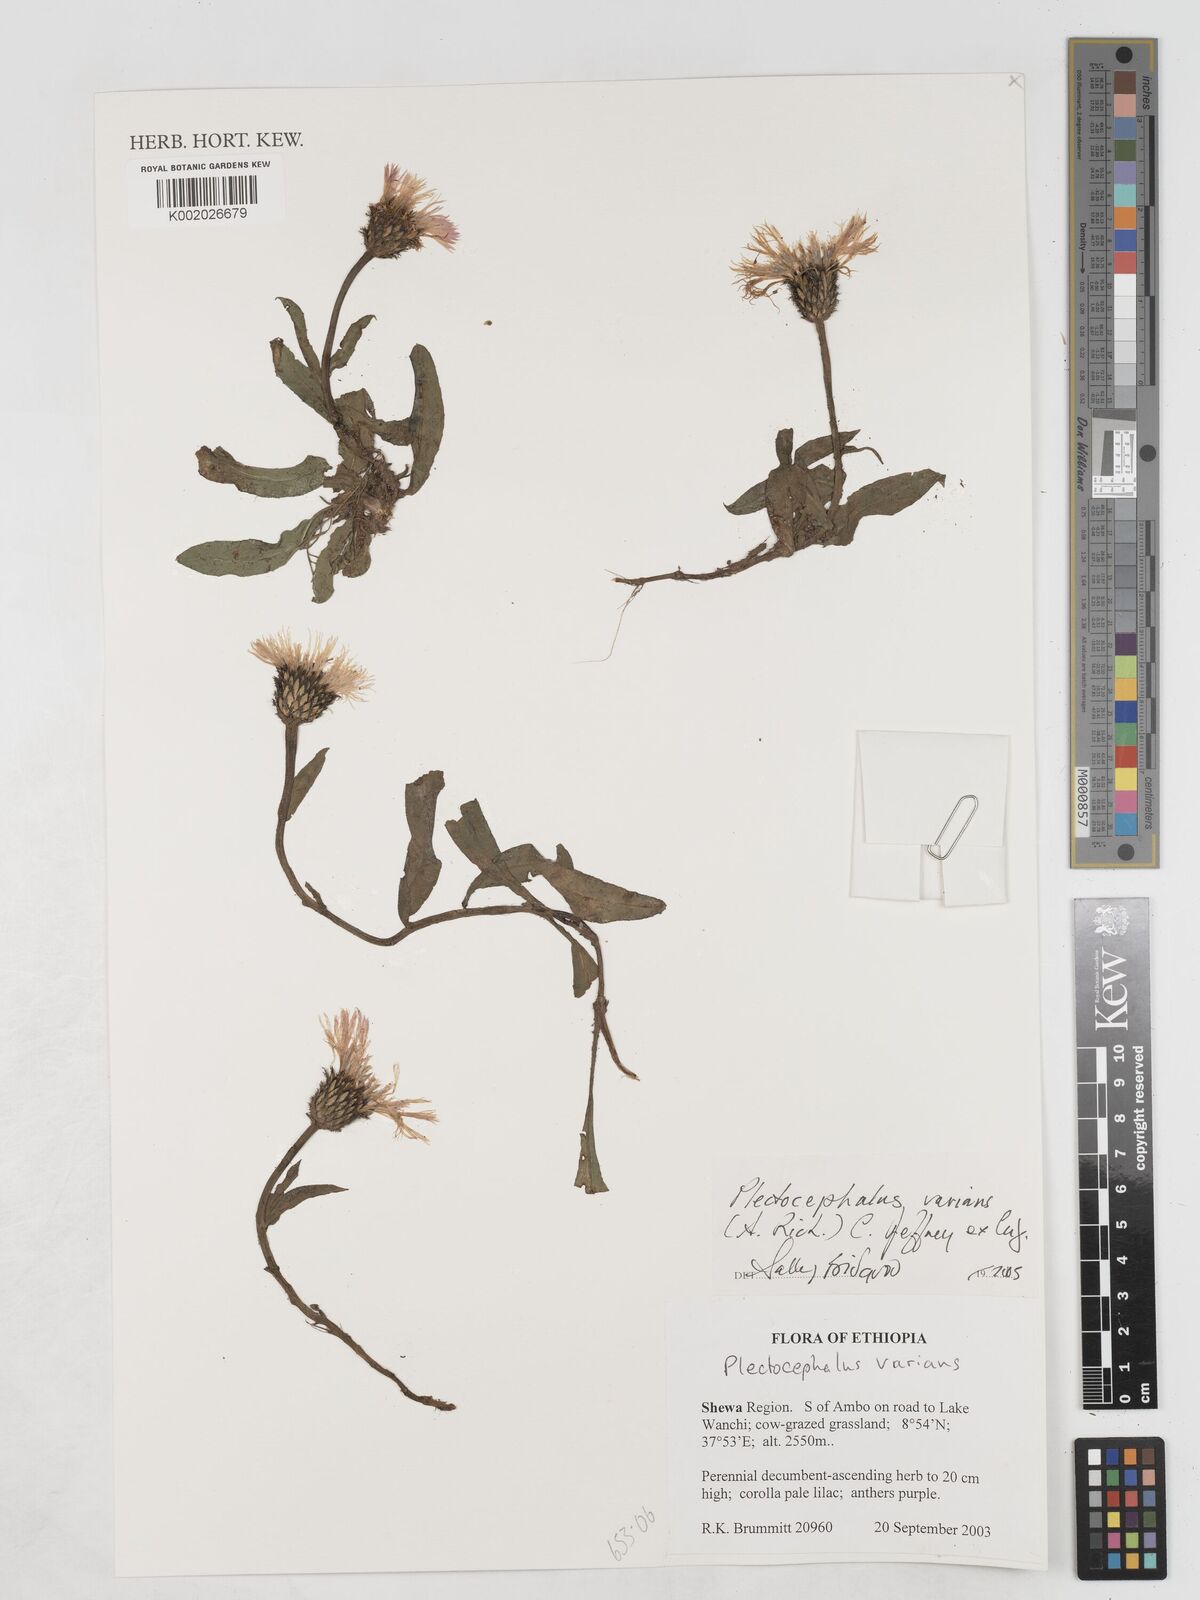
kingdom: Plantae
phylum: Tracheophyta
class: Magnoliopsida
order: Asterales
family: Asteraceae
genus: Plectocephalus
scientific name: Plectocephalus varians
